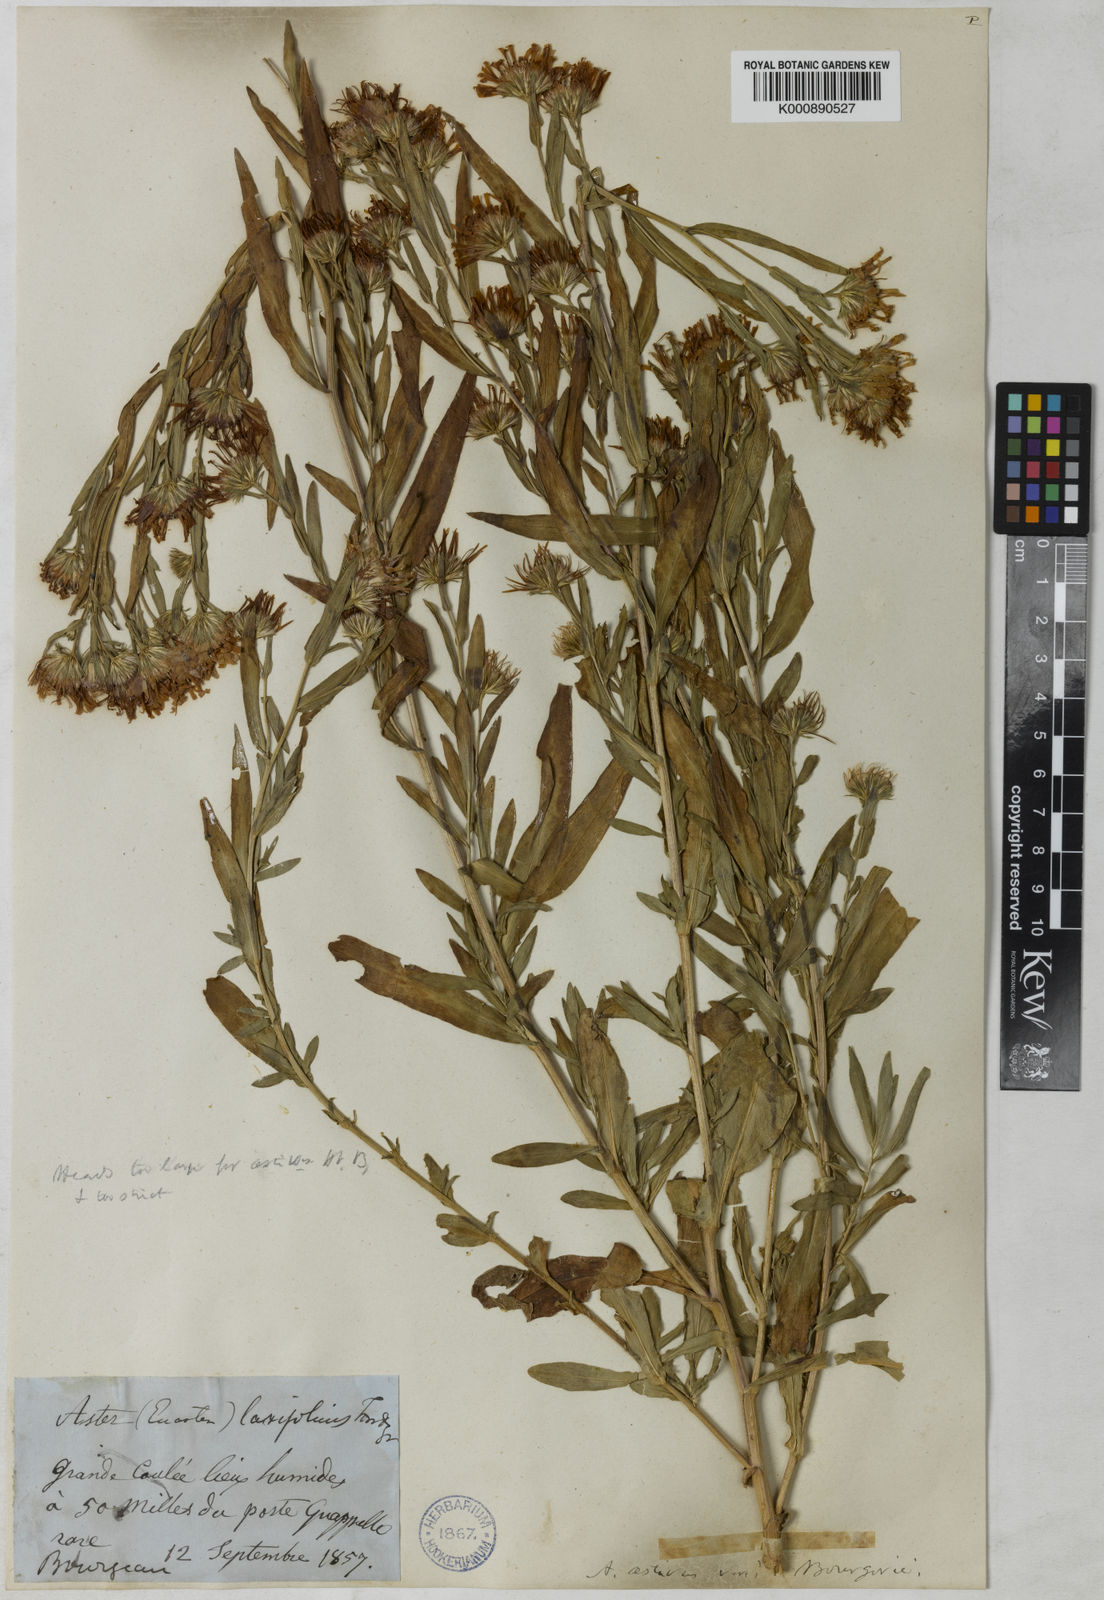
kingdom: Plantae
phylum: Tracheophyta
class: Magnoliopsida
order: Asterales
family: Asteraceae
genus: Symphyotrichum
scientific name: Symphyotrichum novi-belgii
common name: Michaelmas daisy
